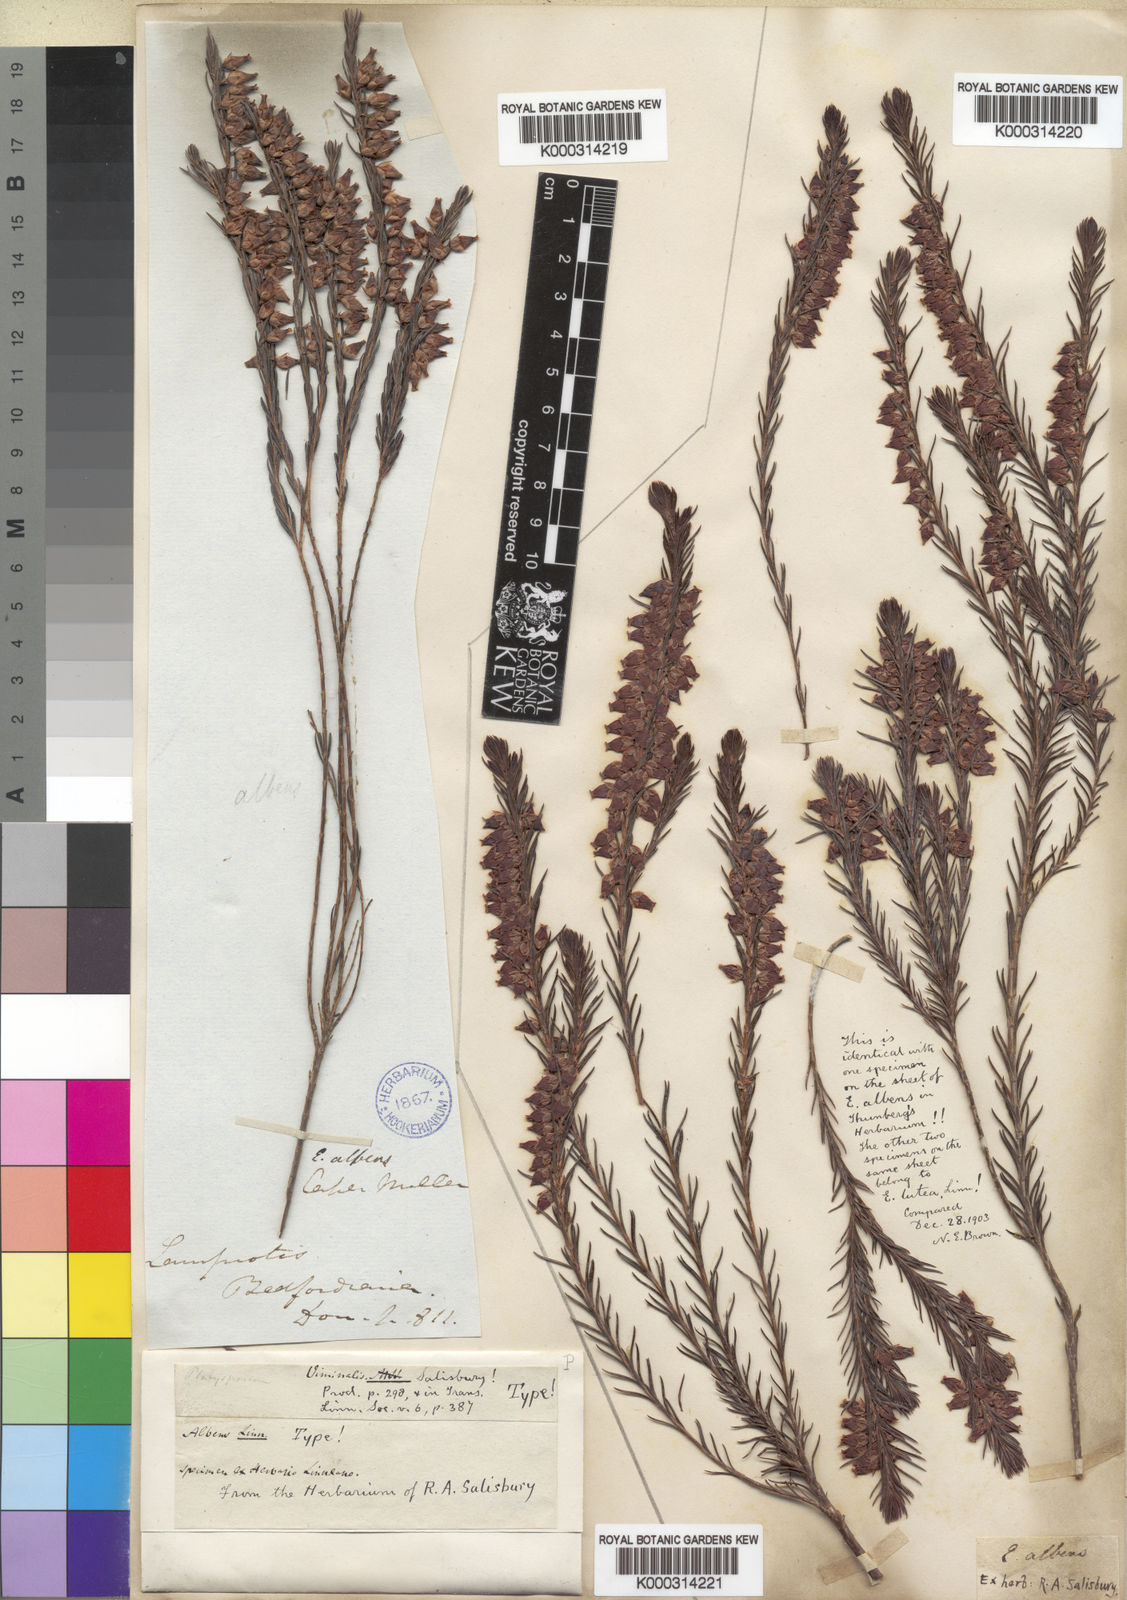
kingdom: Plantae
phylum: Tracheophyta
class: Magnoliopsida
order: Ericales
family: Ericaceae
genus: Erica
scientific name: Erica
